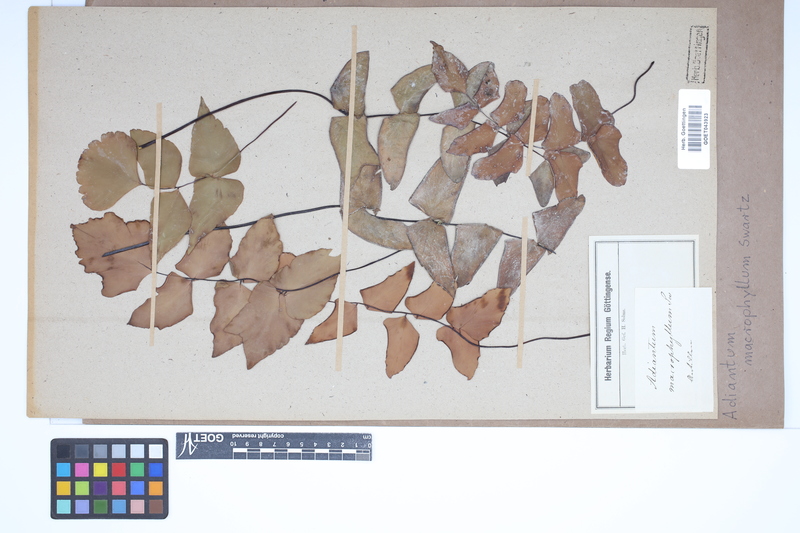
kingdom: Plantae
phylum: Tracheophyta
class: Polypodiopsida
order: Polypodiales
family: Pteridaceae
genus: Adiantum
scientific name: Adiantum macrophyllum
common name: Largeleaf maidenhair
